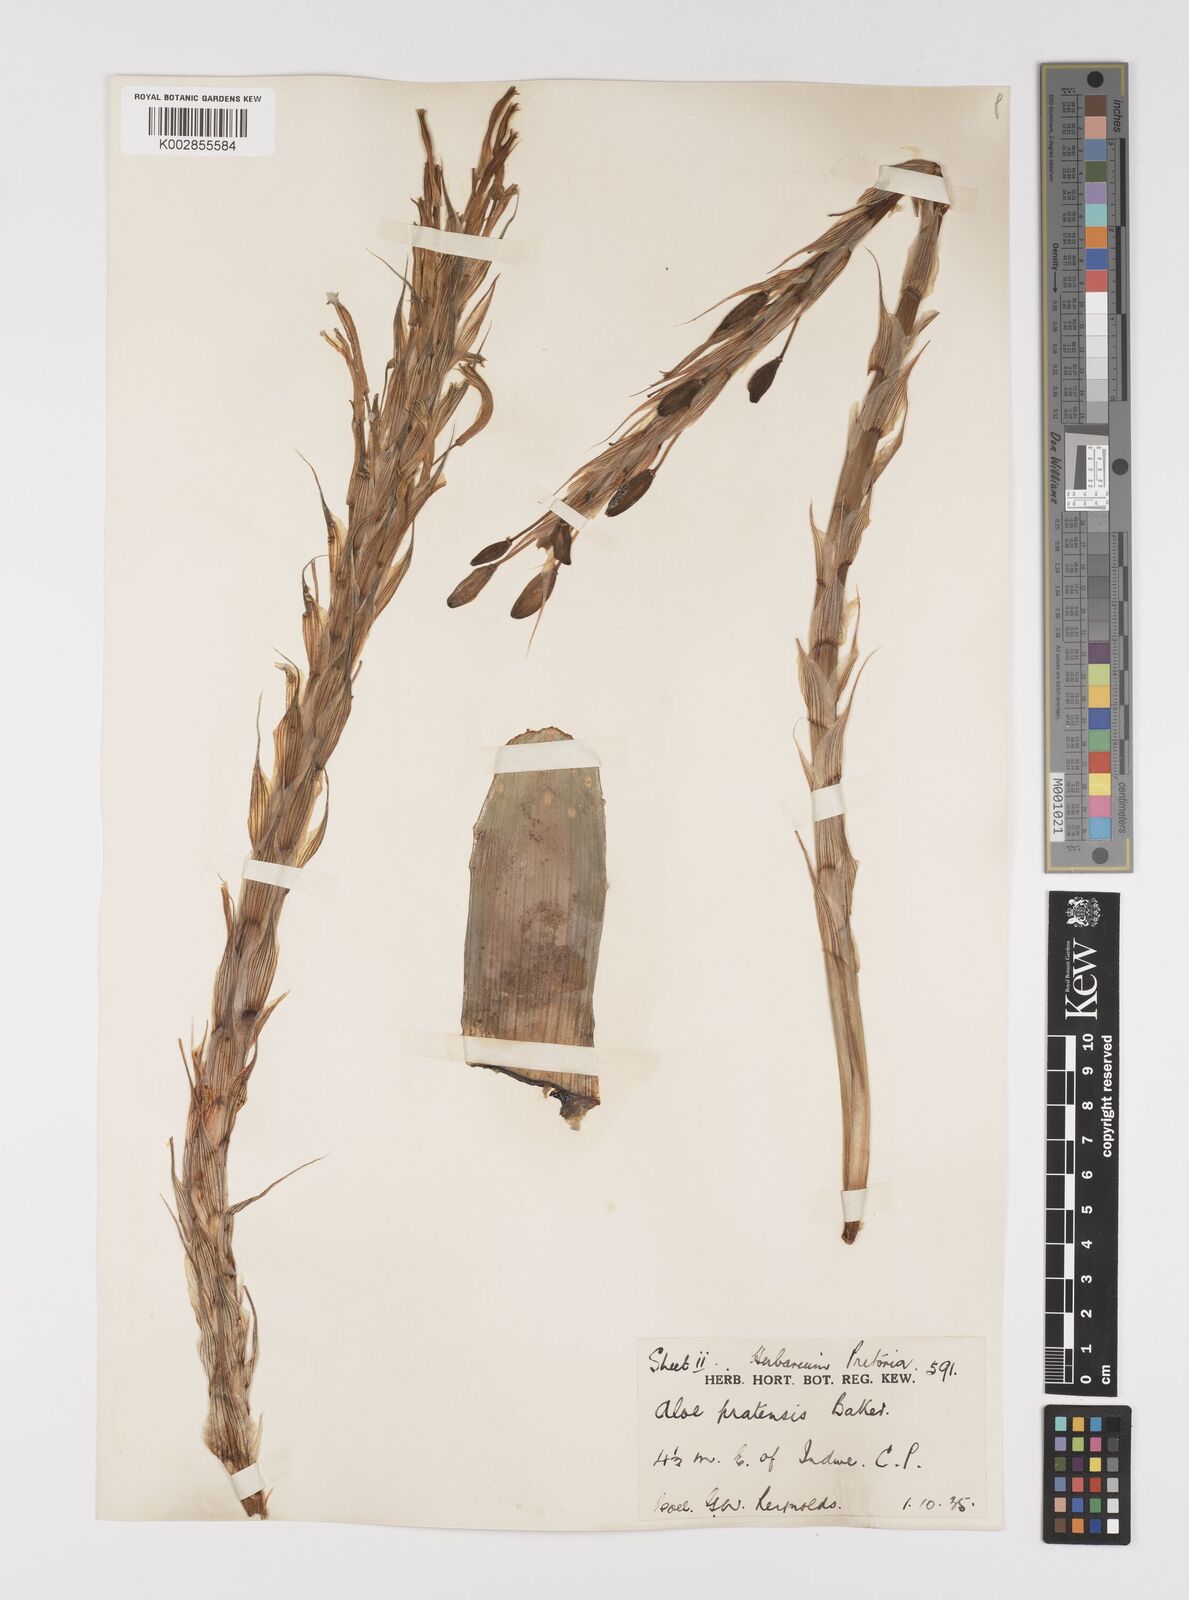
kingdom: Plantae
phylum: Tracheophyta
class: Liliopsida
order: Asparagales
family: Asphodelaceae
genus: Aloe
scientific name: Aloe pratensis
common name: Meadow aloe
